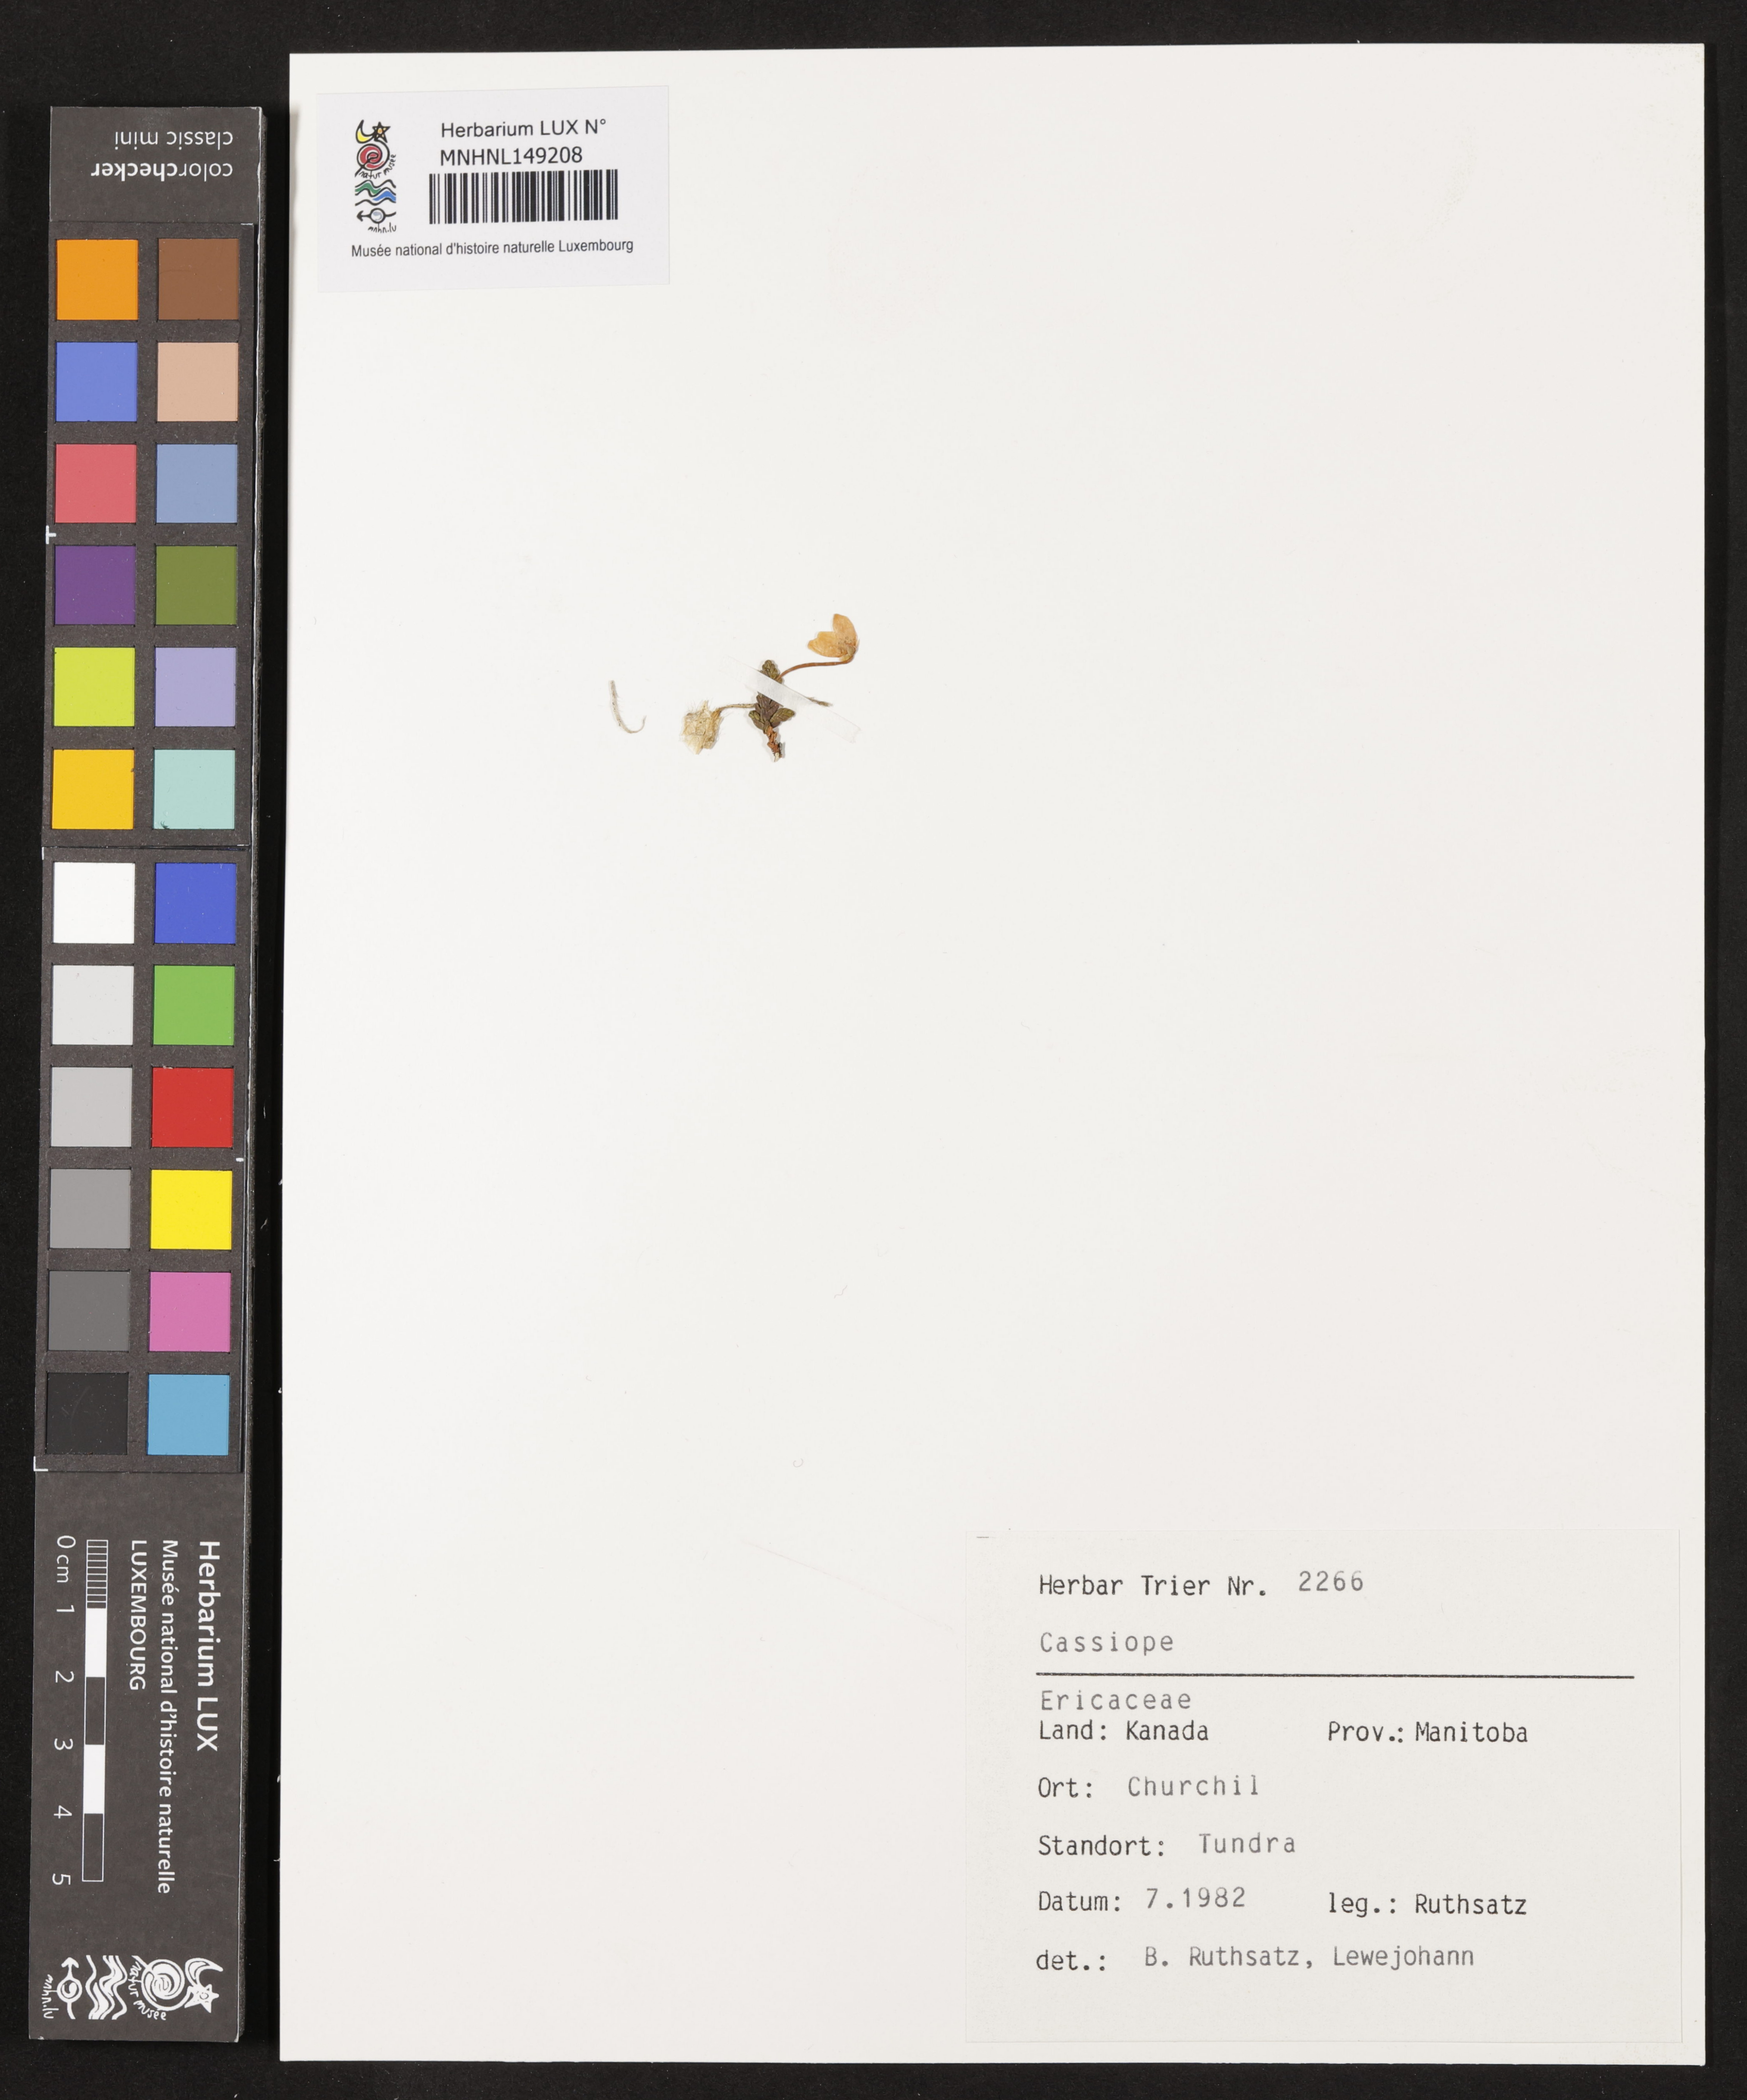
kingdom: Plantae
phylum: Tracheophyta
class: Magnoliopsida
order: Ericales
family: Ericaceae
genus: Cassiope
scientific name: Cassiope
